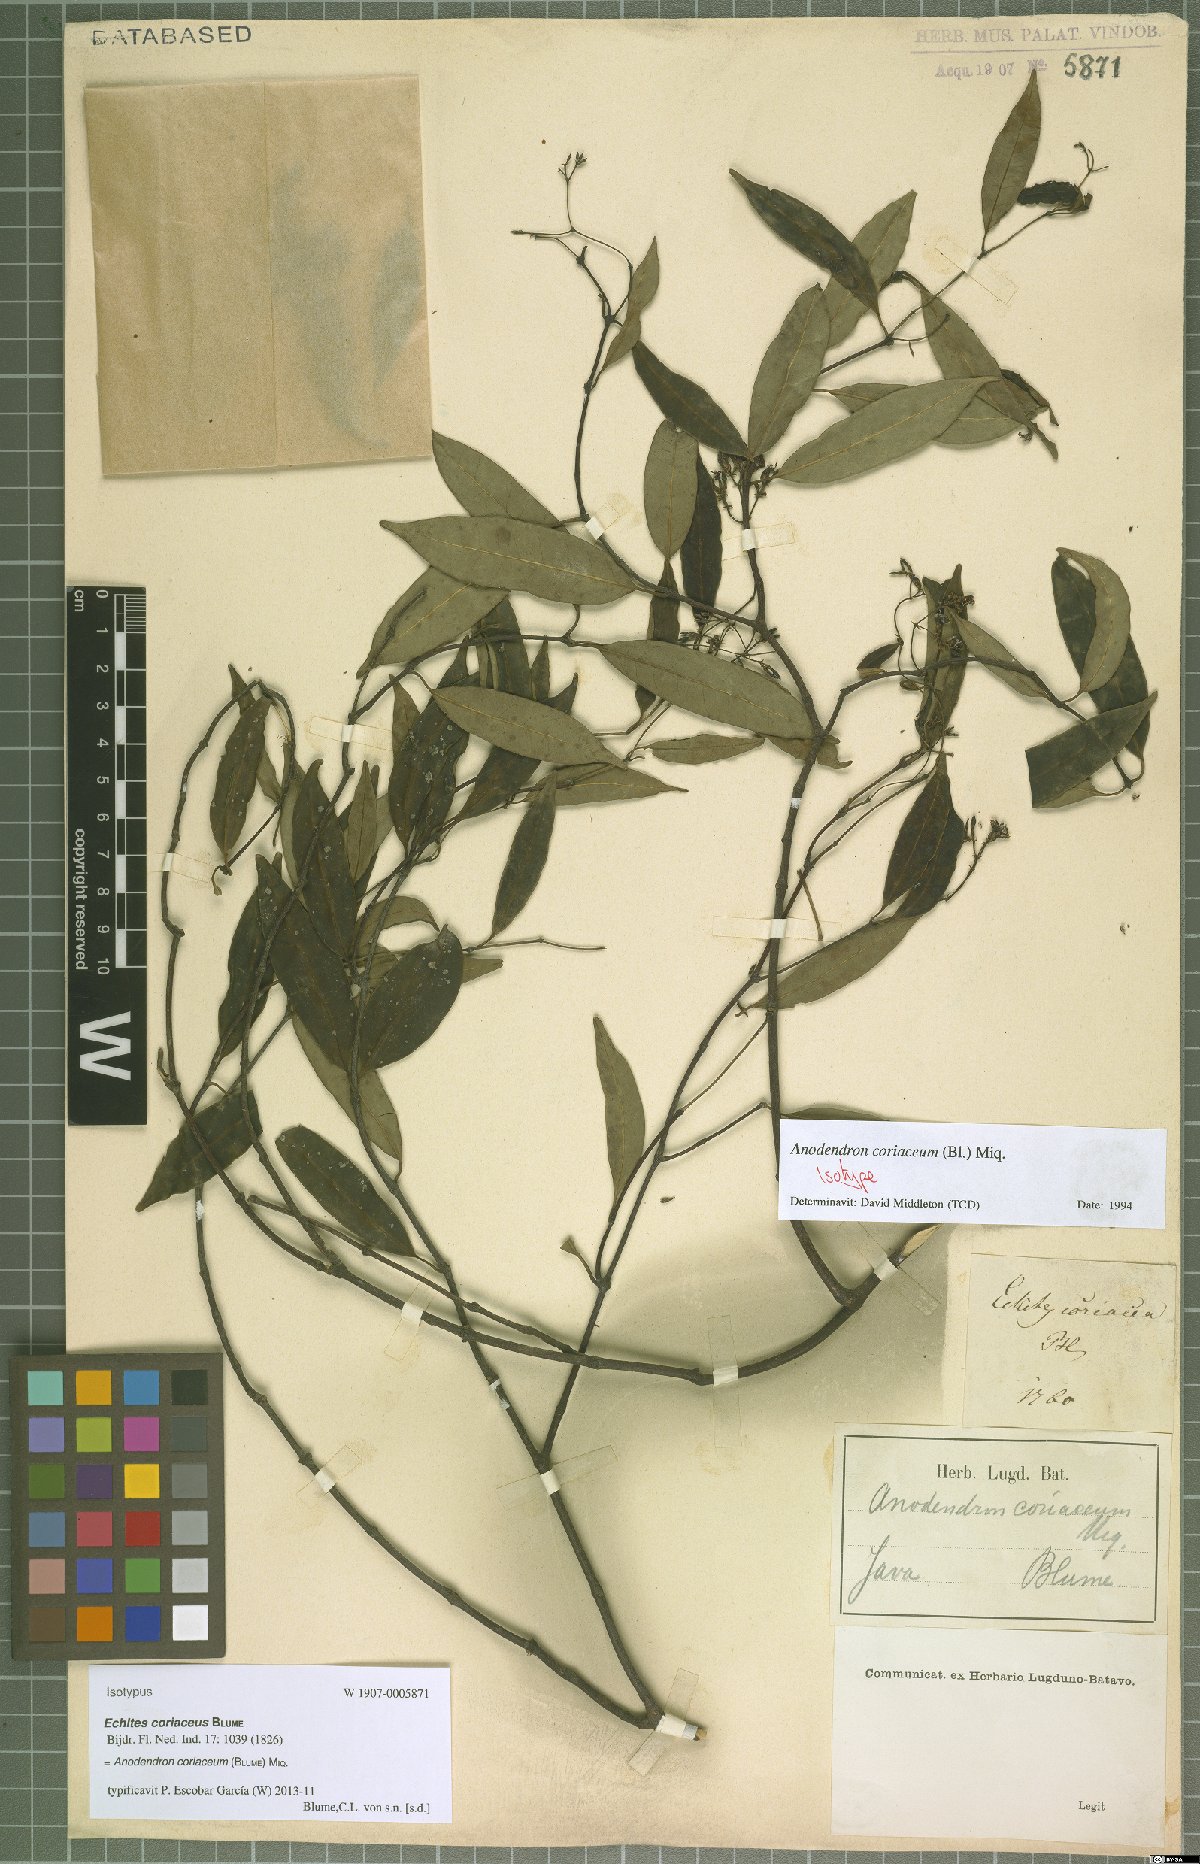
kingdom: Plantae
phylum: Tracheophyta
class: Magnoliopsida
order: Gentianales
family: Apocynaceae
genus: Anodendron
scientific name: Anodendron coriaceum
